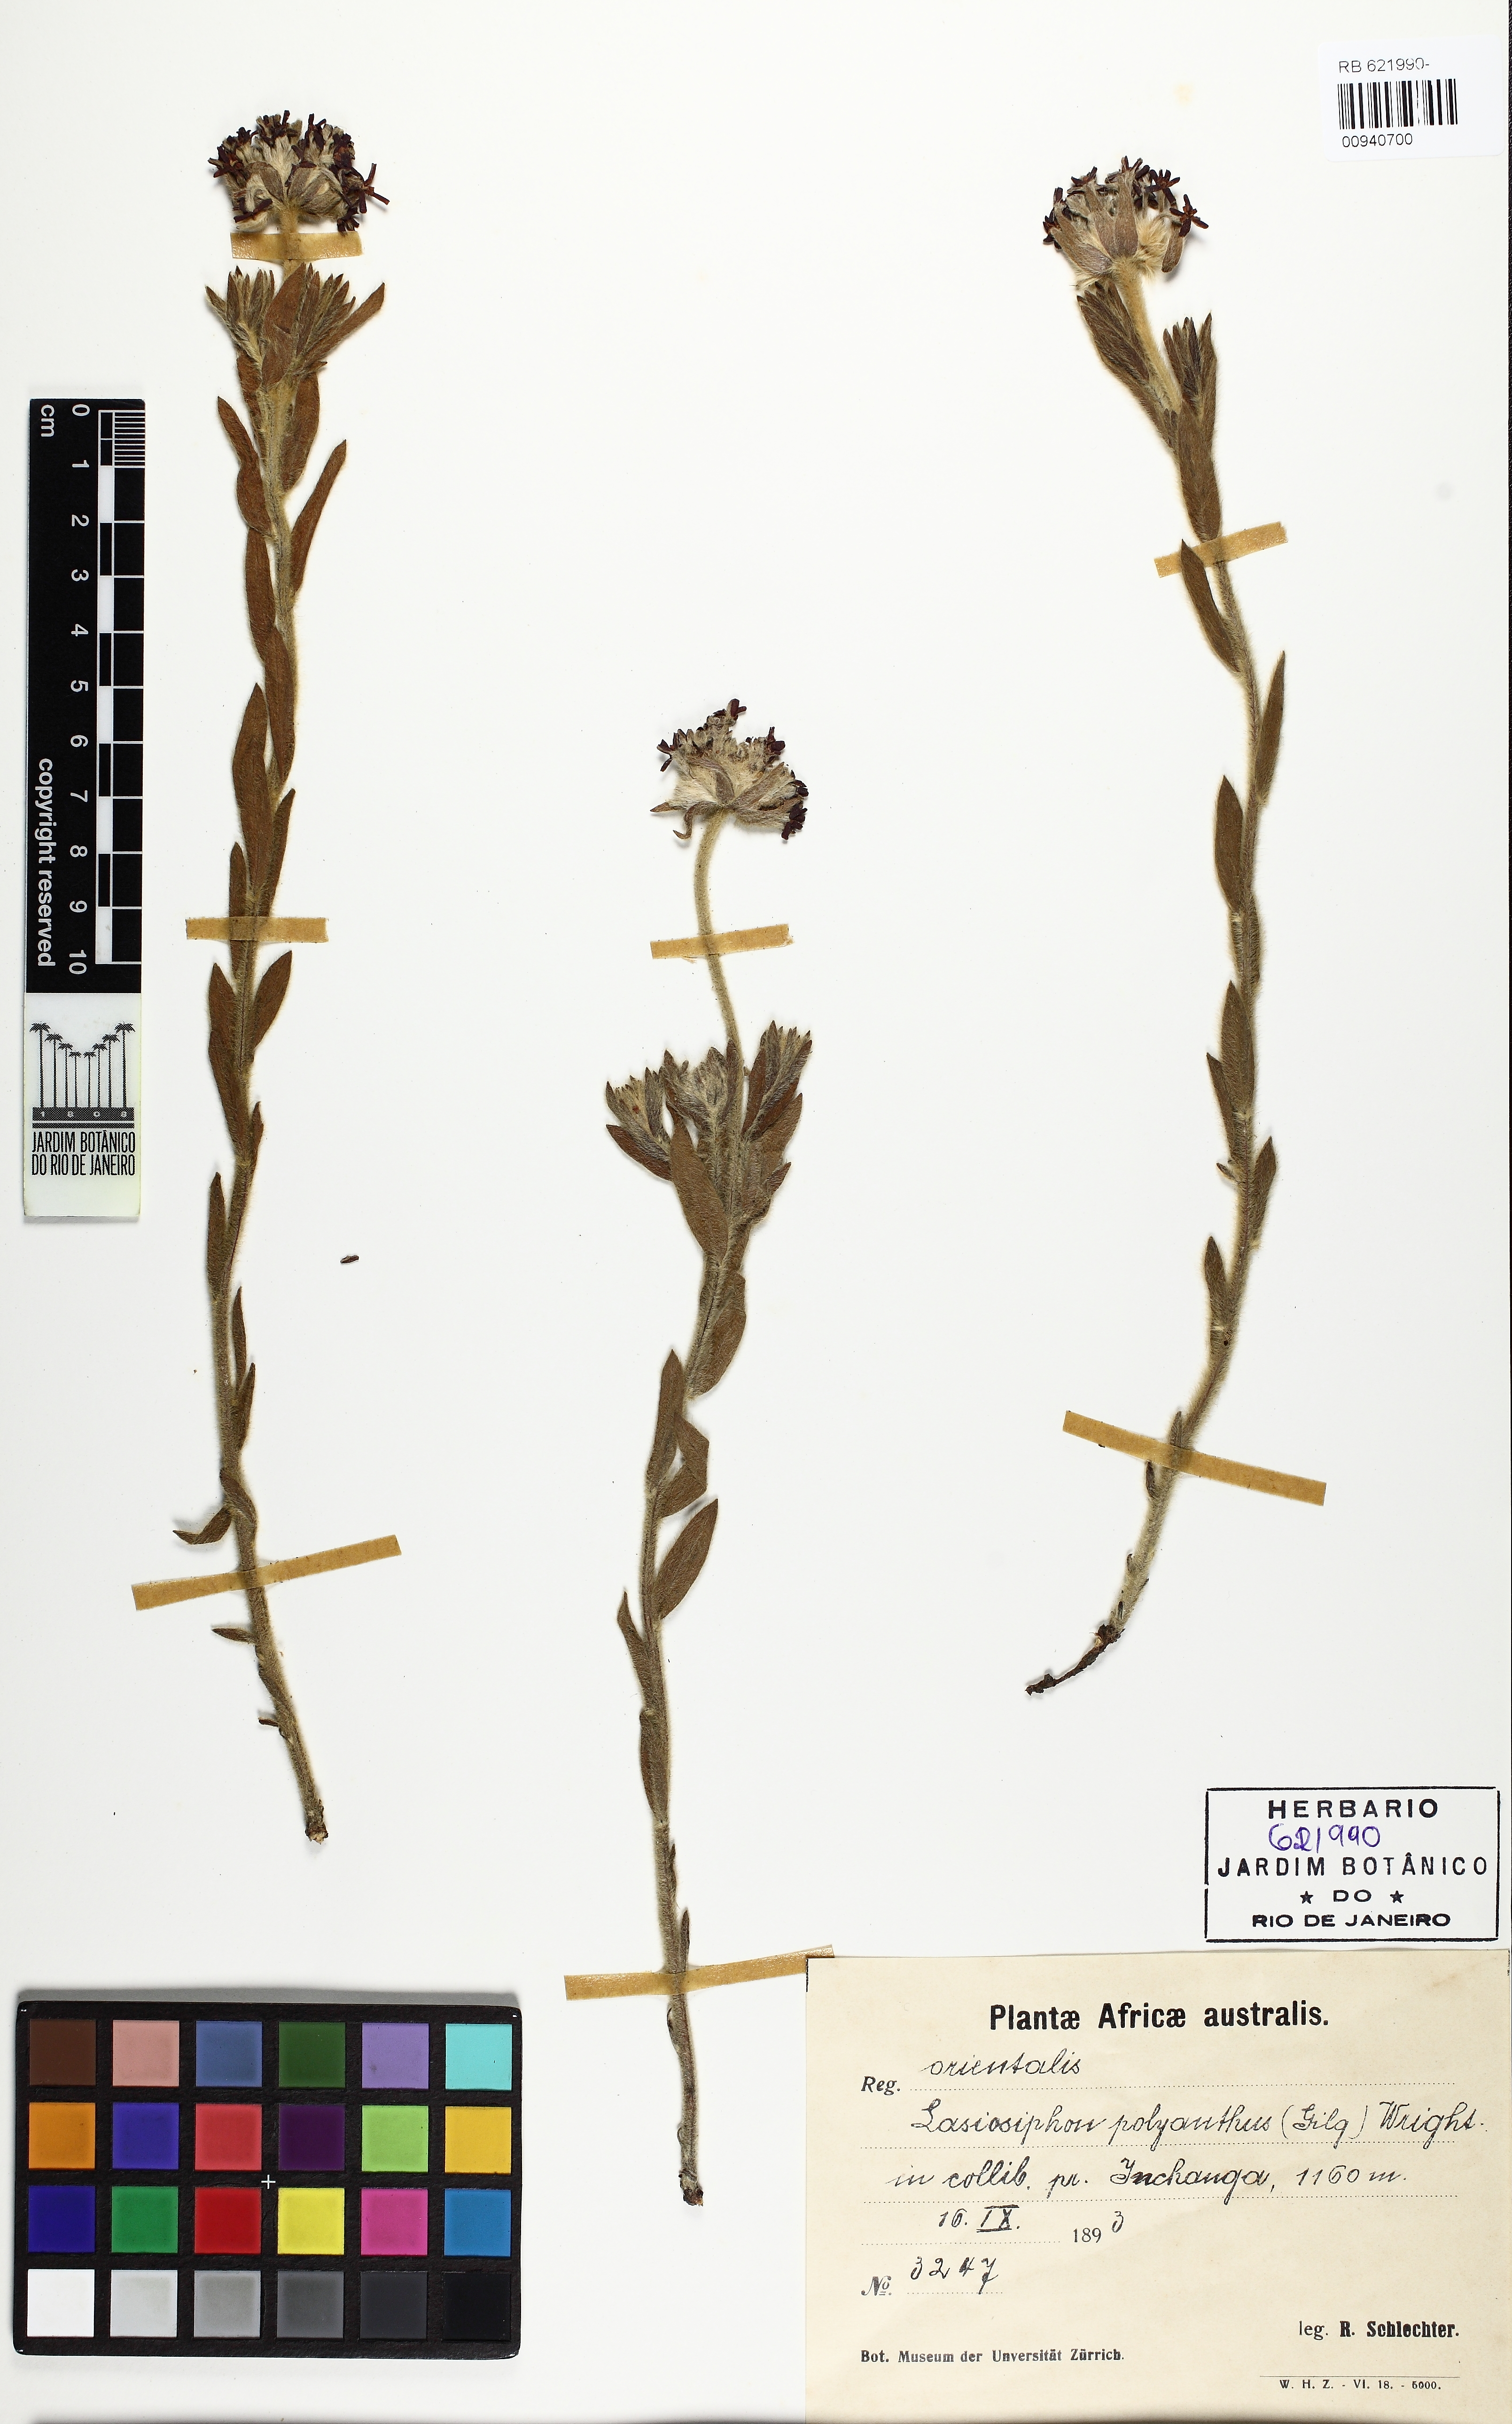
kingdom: Plantae
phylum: Tracheophyta
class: Magnoliopsida
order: Malvales
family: Thymelaeaceae
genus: Gnidia
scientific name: Gnidia polyantha
